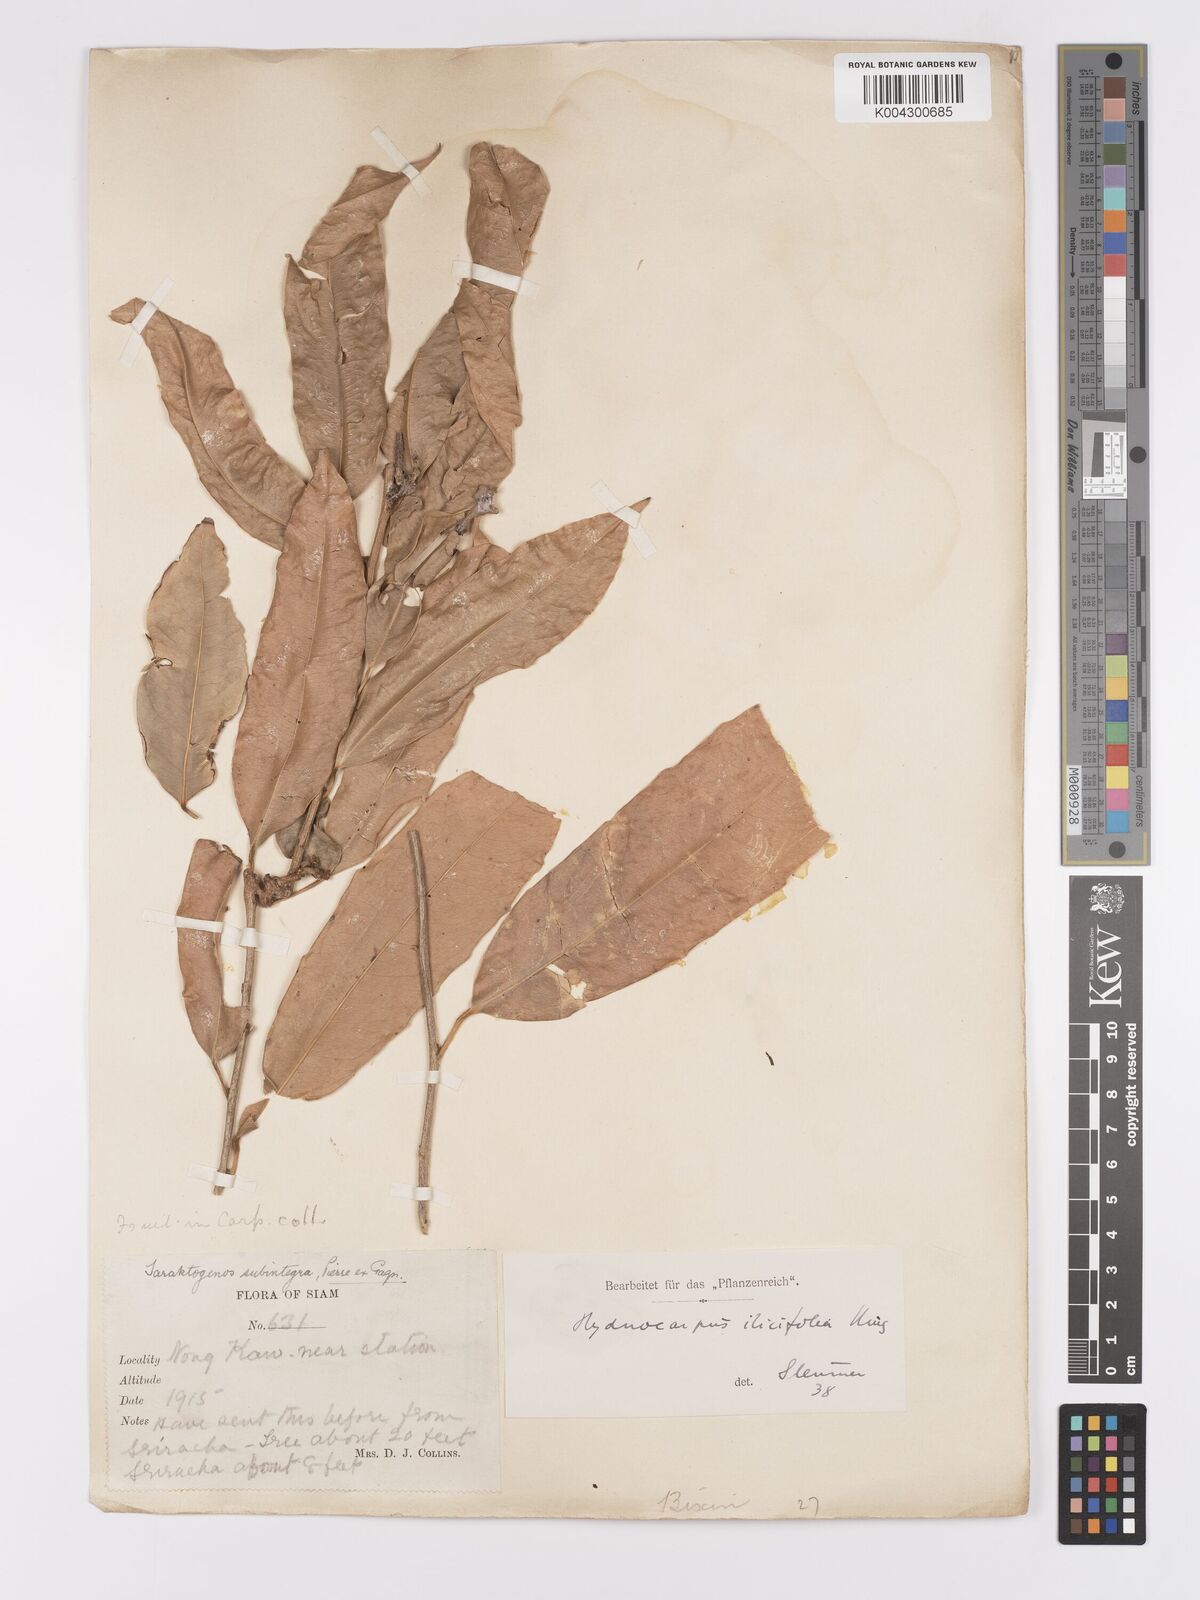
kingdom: Plantae
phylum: Tracheophyta
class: Magnoliopsida
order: Malpighiales
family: Achariaceae
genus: Hydnocarpus
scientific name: Hydnocarpus ilicifolius
